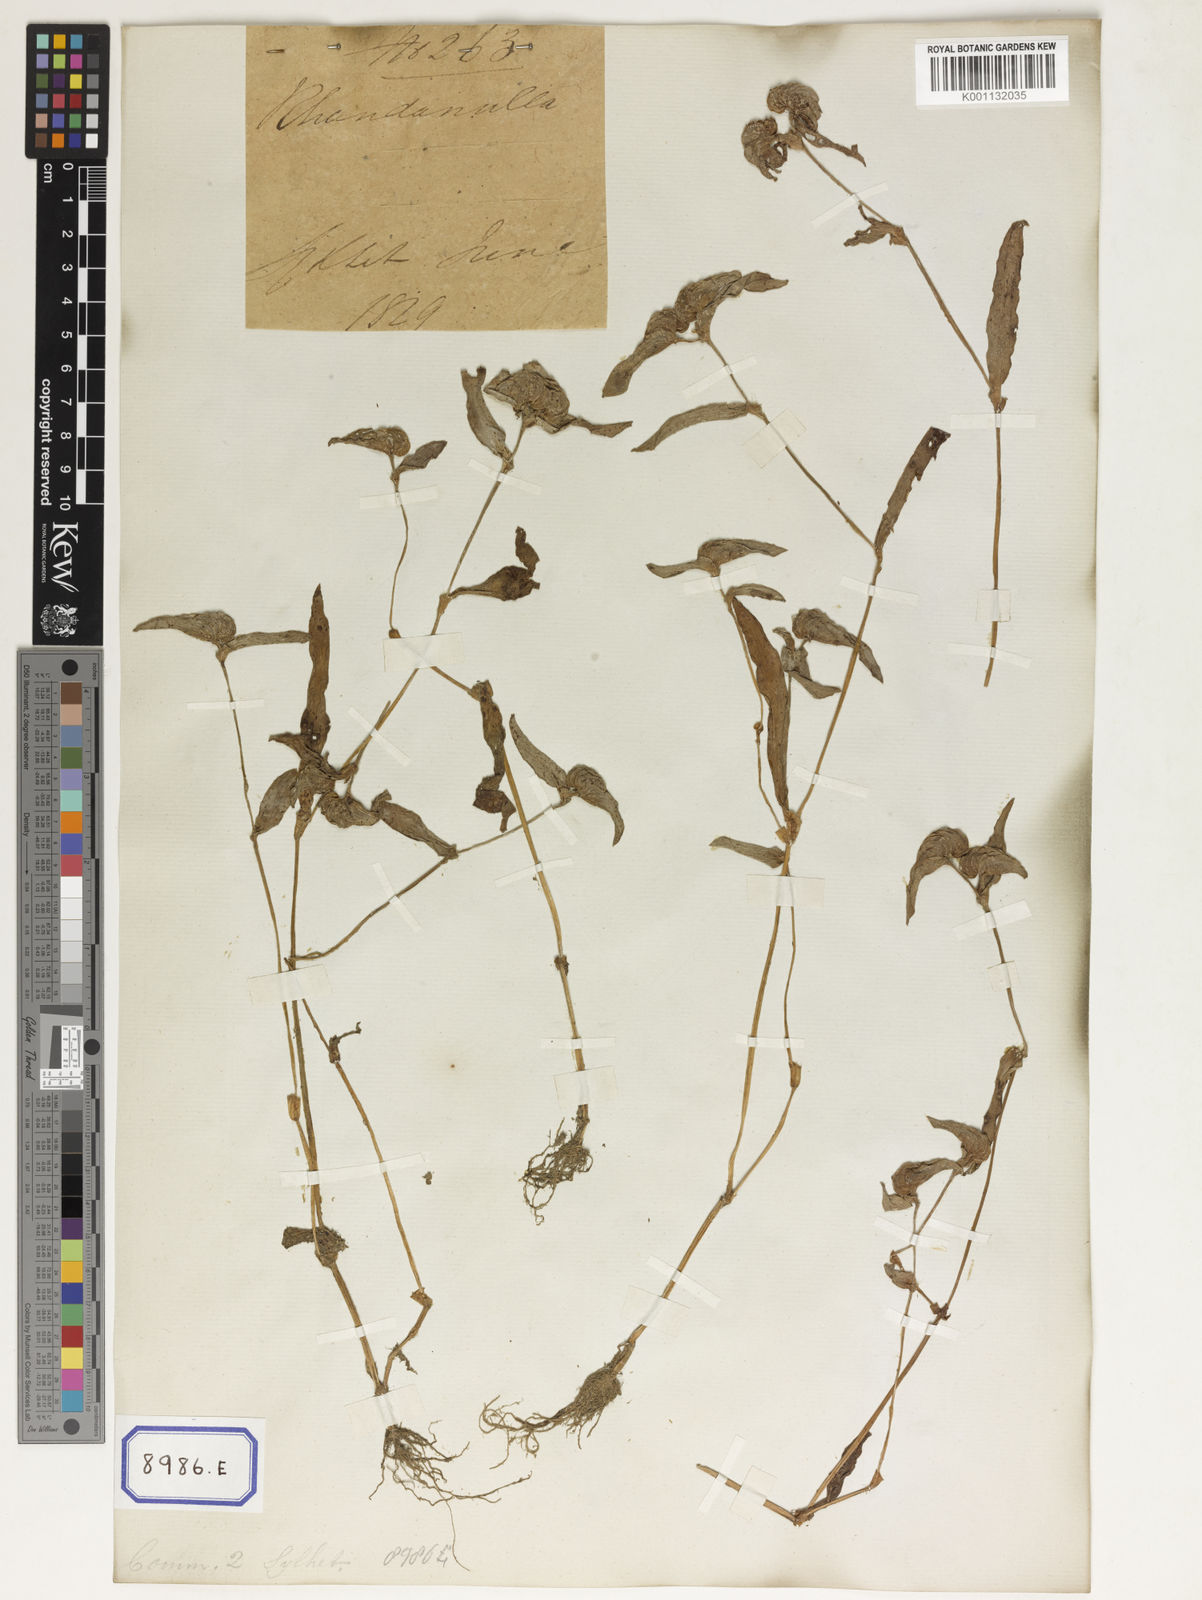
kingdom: Plantae
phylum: Tracheophyta
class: Liliopsida
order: Commelinales
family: Commelinaceae
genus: Cyanotis
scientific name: Cyanotis cristata
